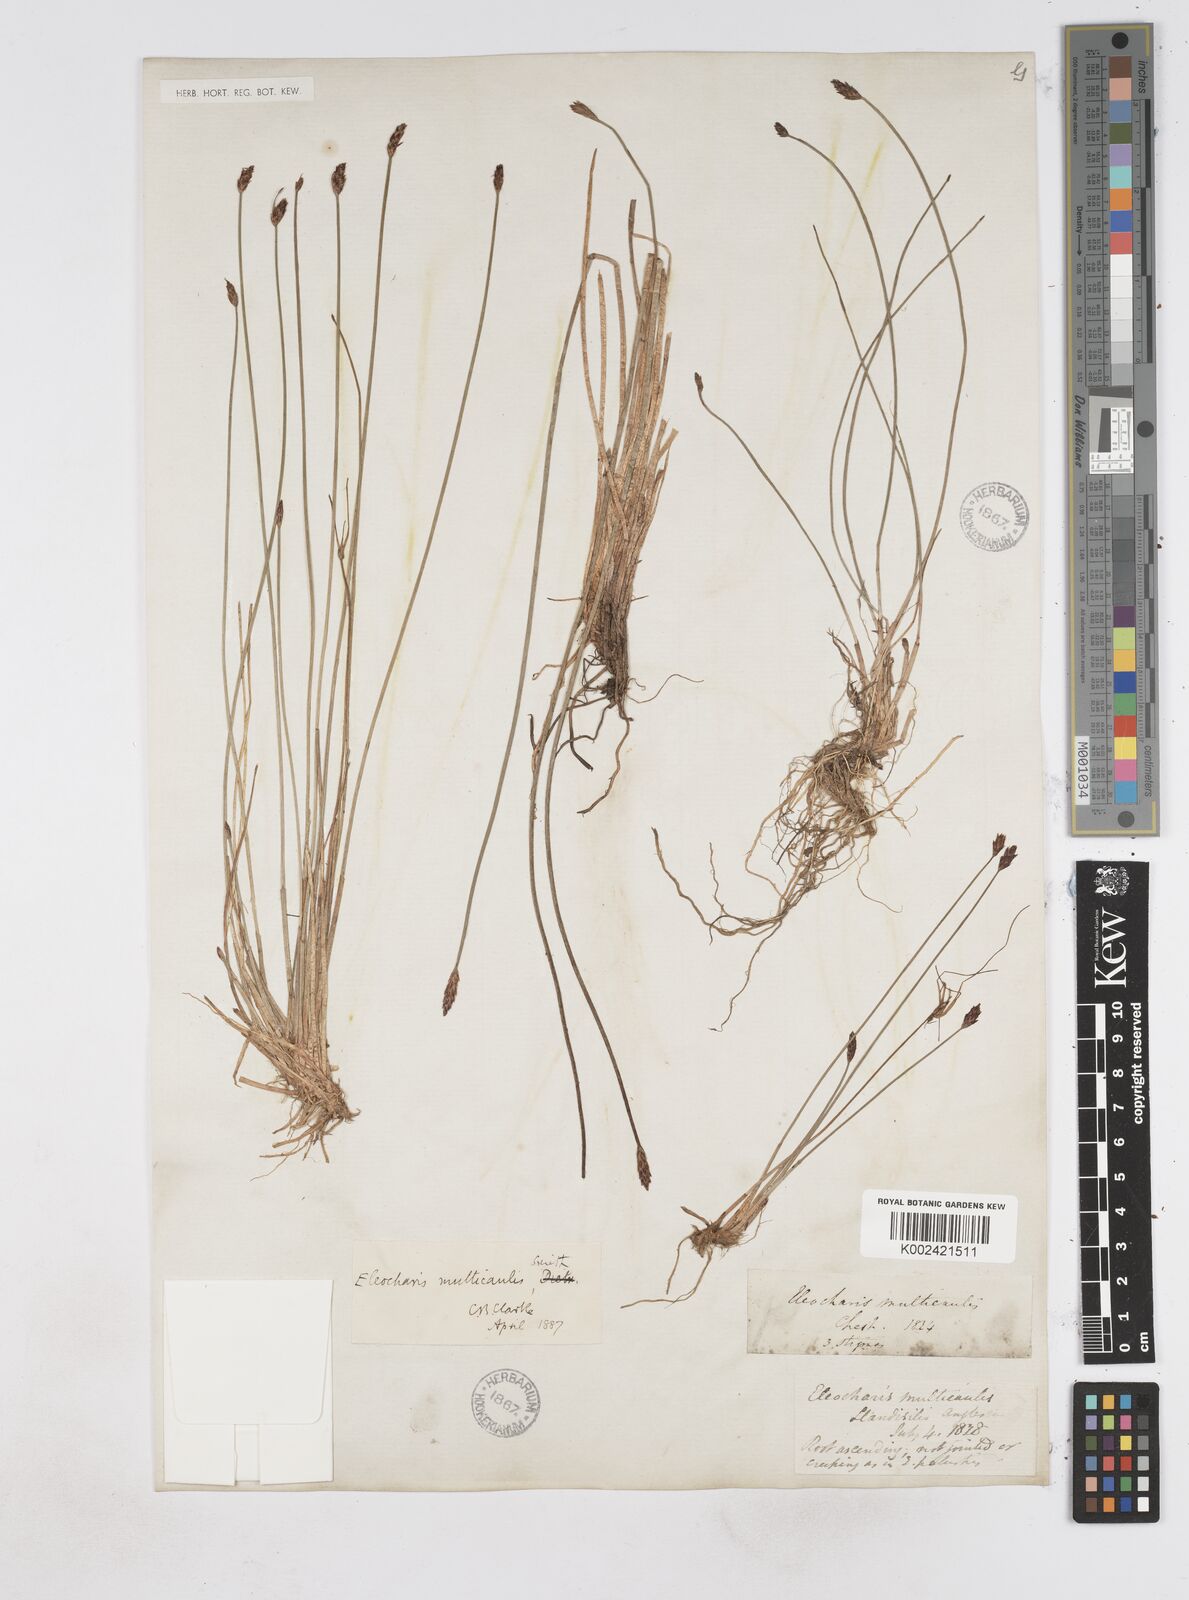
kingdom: Plantae
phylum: Tracheophyta
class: Liliopsida
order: Poales
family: Cyperaceae
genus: Eleocharis
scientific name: Eleocharis multicaulis
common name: Many-stalked spike-rush
